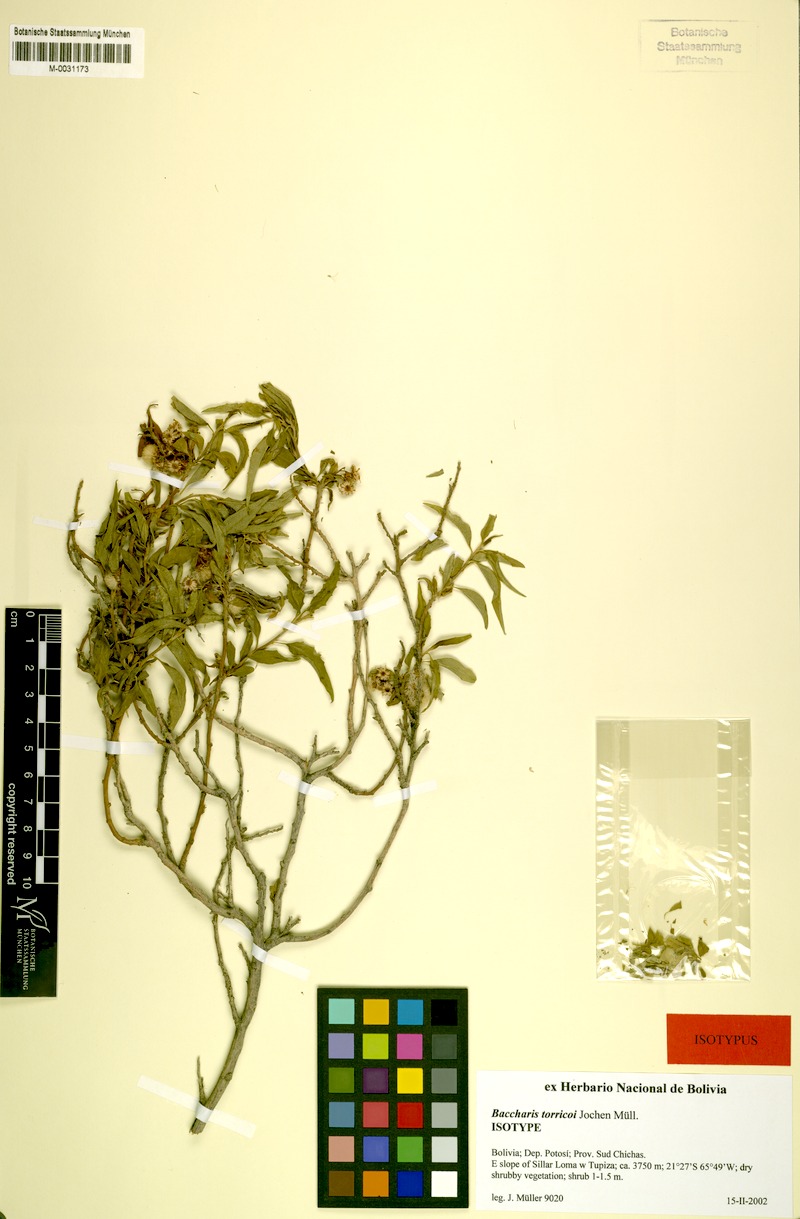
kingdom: Plantae
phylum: Tracheophyta
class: Magnoliopsida
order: Asterales
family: Asteraceae
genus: Baccharis
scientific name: Baccharis torricoi
